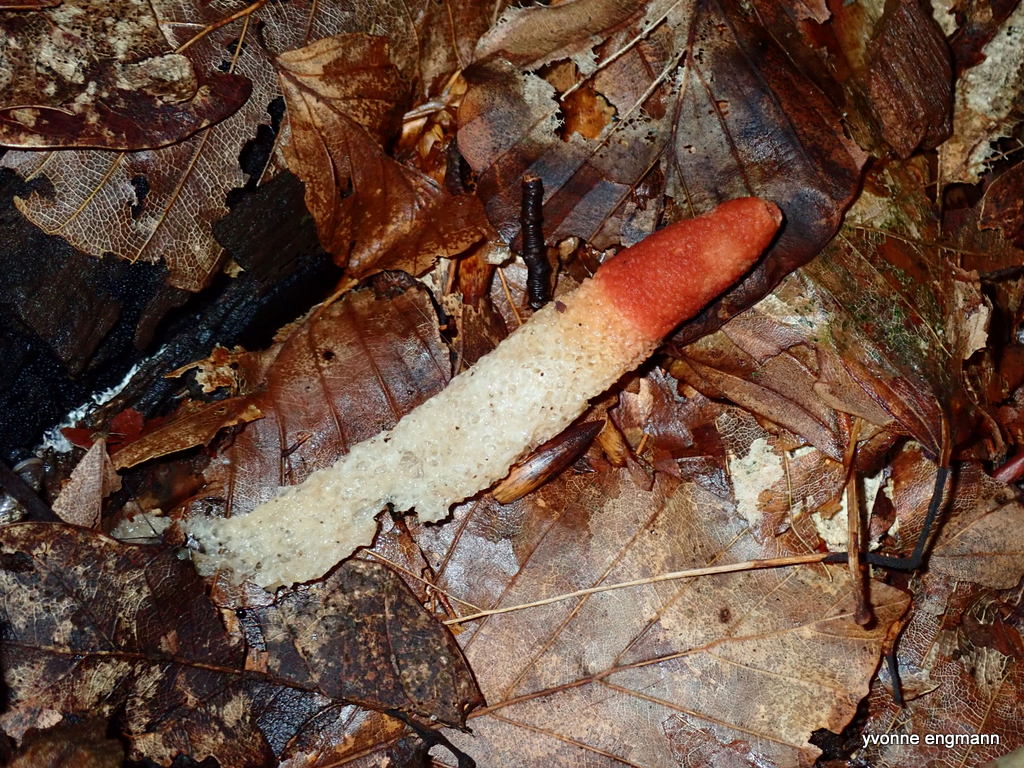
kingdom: Fungi
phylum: Basidiomycota
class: Agaricomycetes
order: Phallales
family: Phallaceae
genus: Mutinus
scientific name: Mutinus caninus
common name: hunde-stinksvamp
